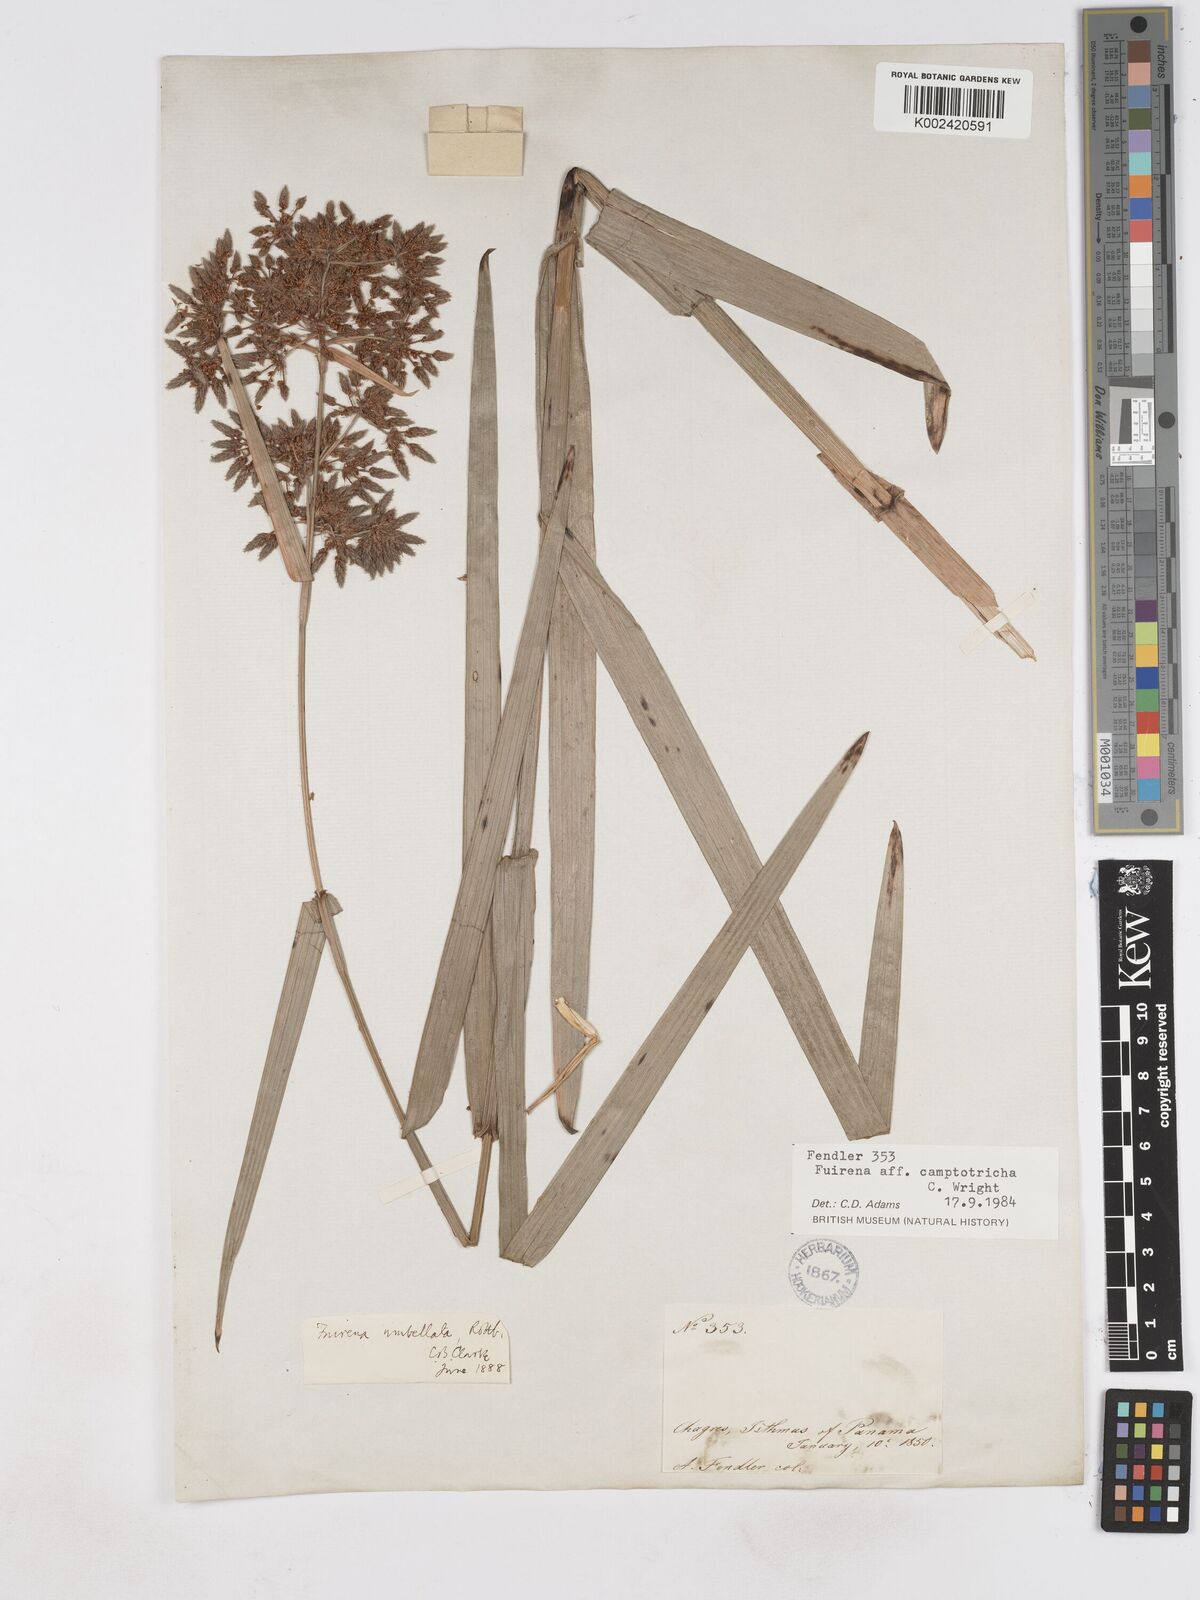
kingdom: Plantae
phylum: Tracheophyta
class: Liliopsida
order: Poales
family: Cyperaceae
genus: Fuirena
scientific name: Fuirena camptotricha
